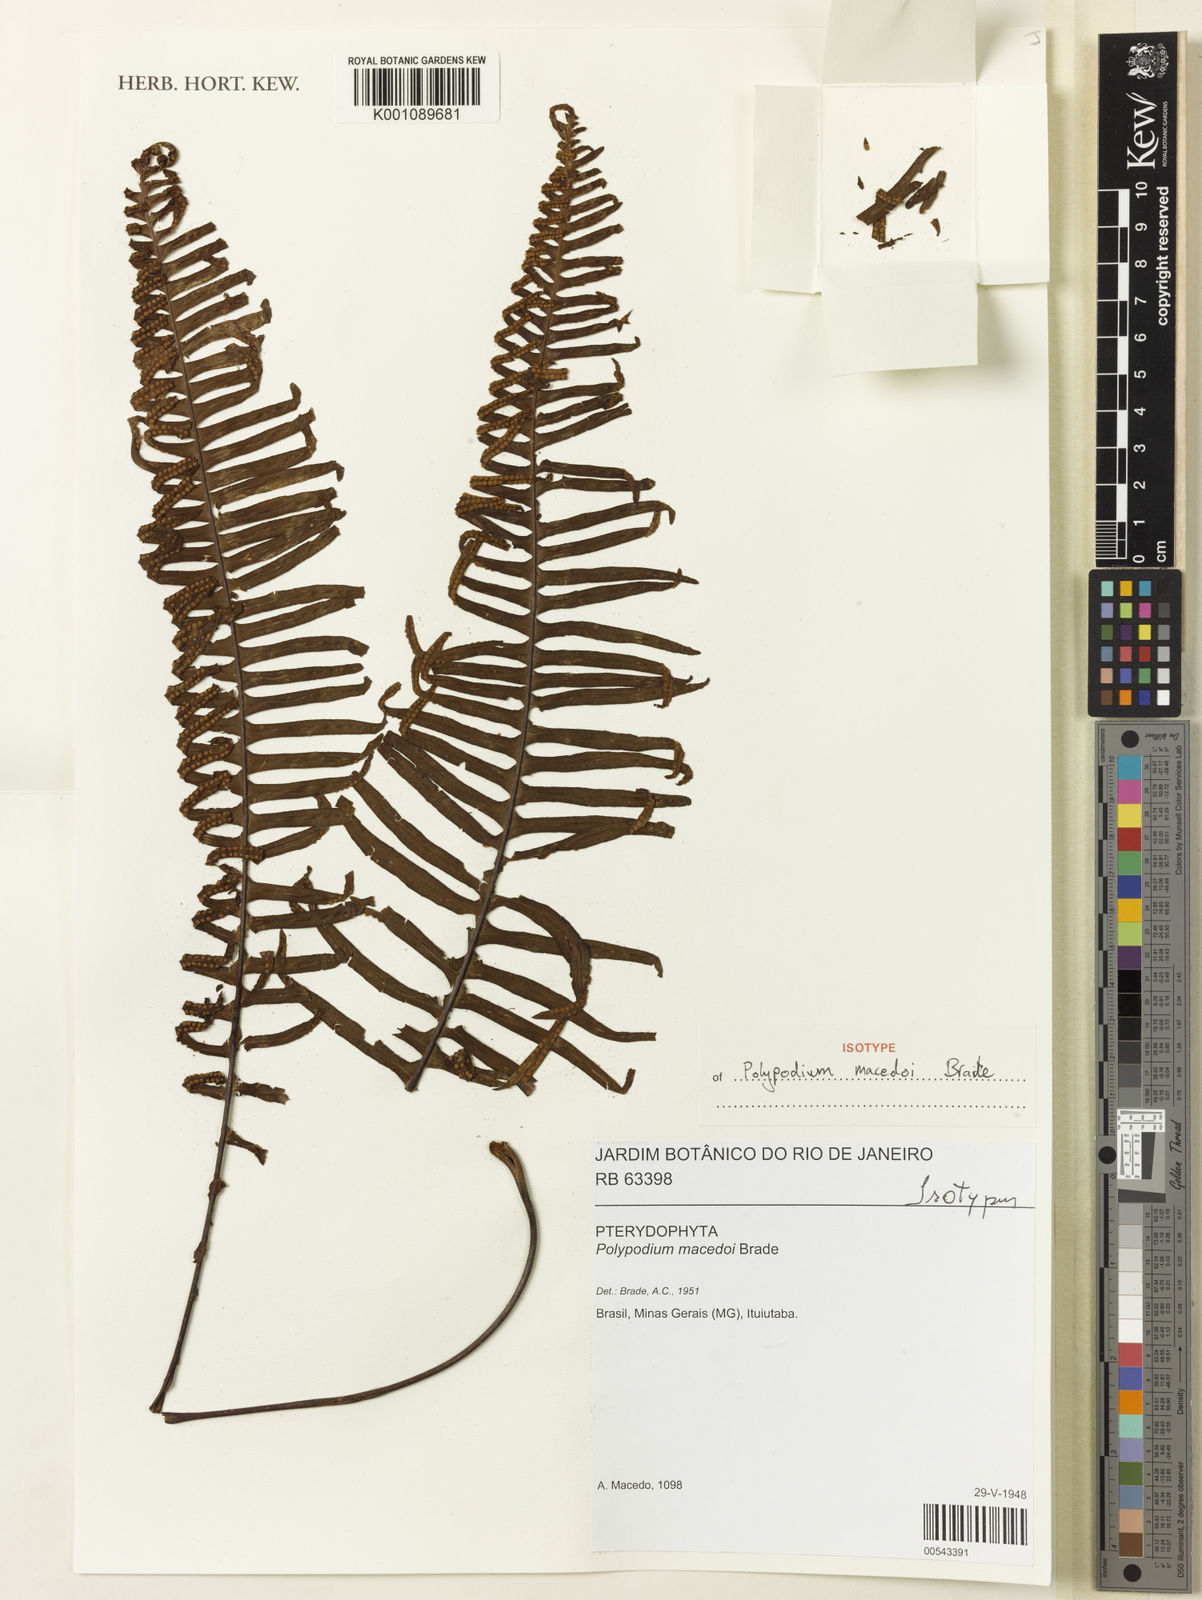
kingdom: Plantae
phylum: Tracheophyta
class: Polypodiopsida
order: Polypodiales
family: Polypodiaceae
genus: Pecluma
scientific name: Pecluma macedoi
